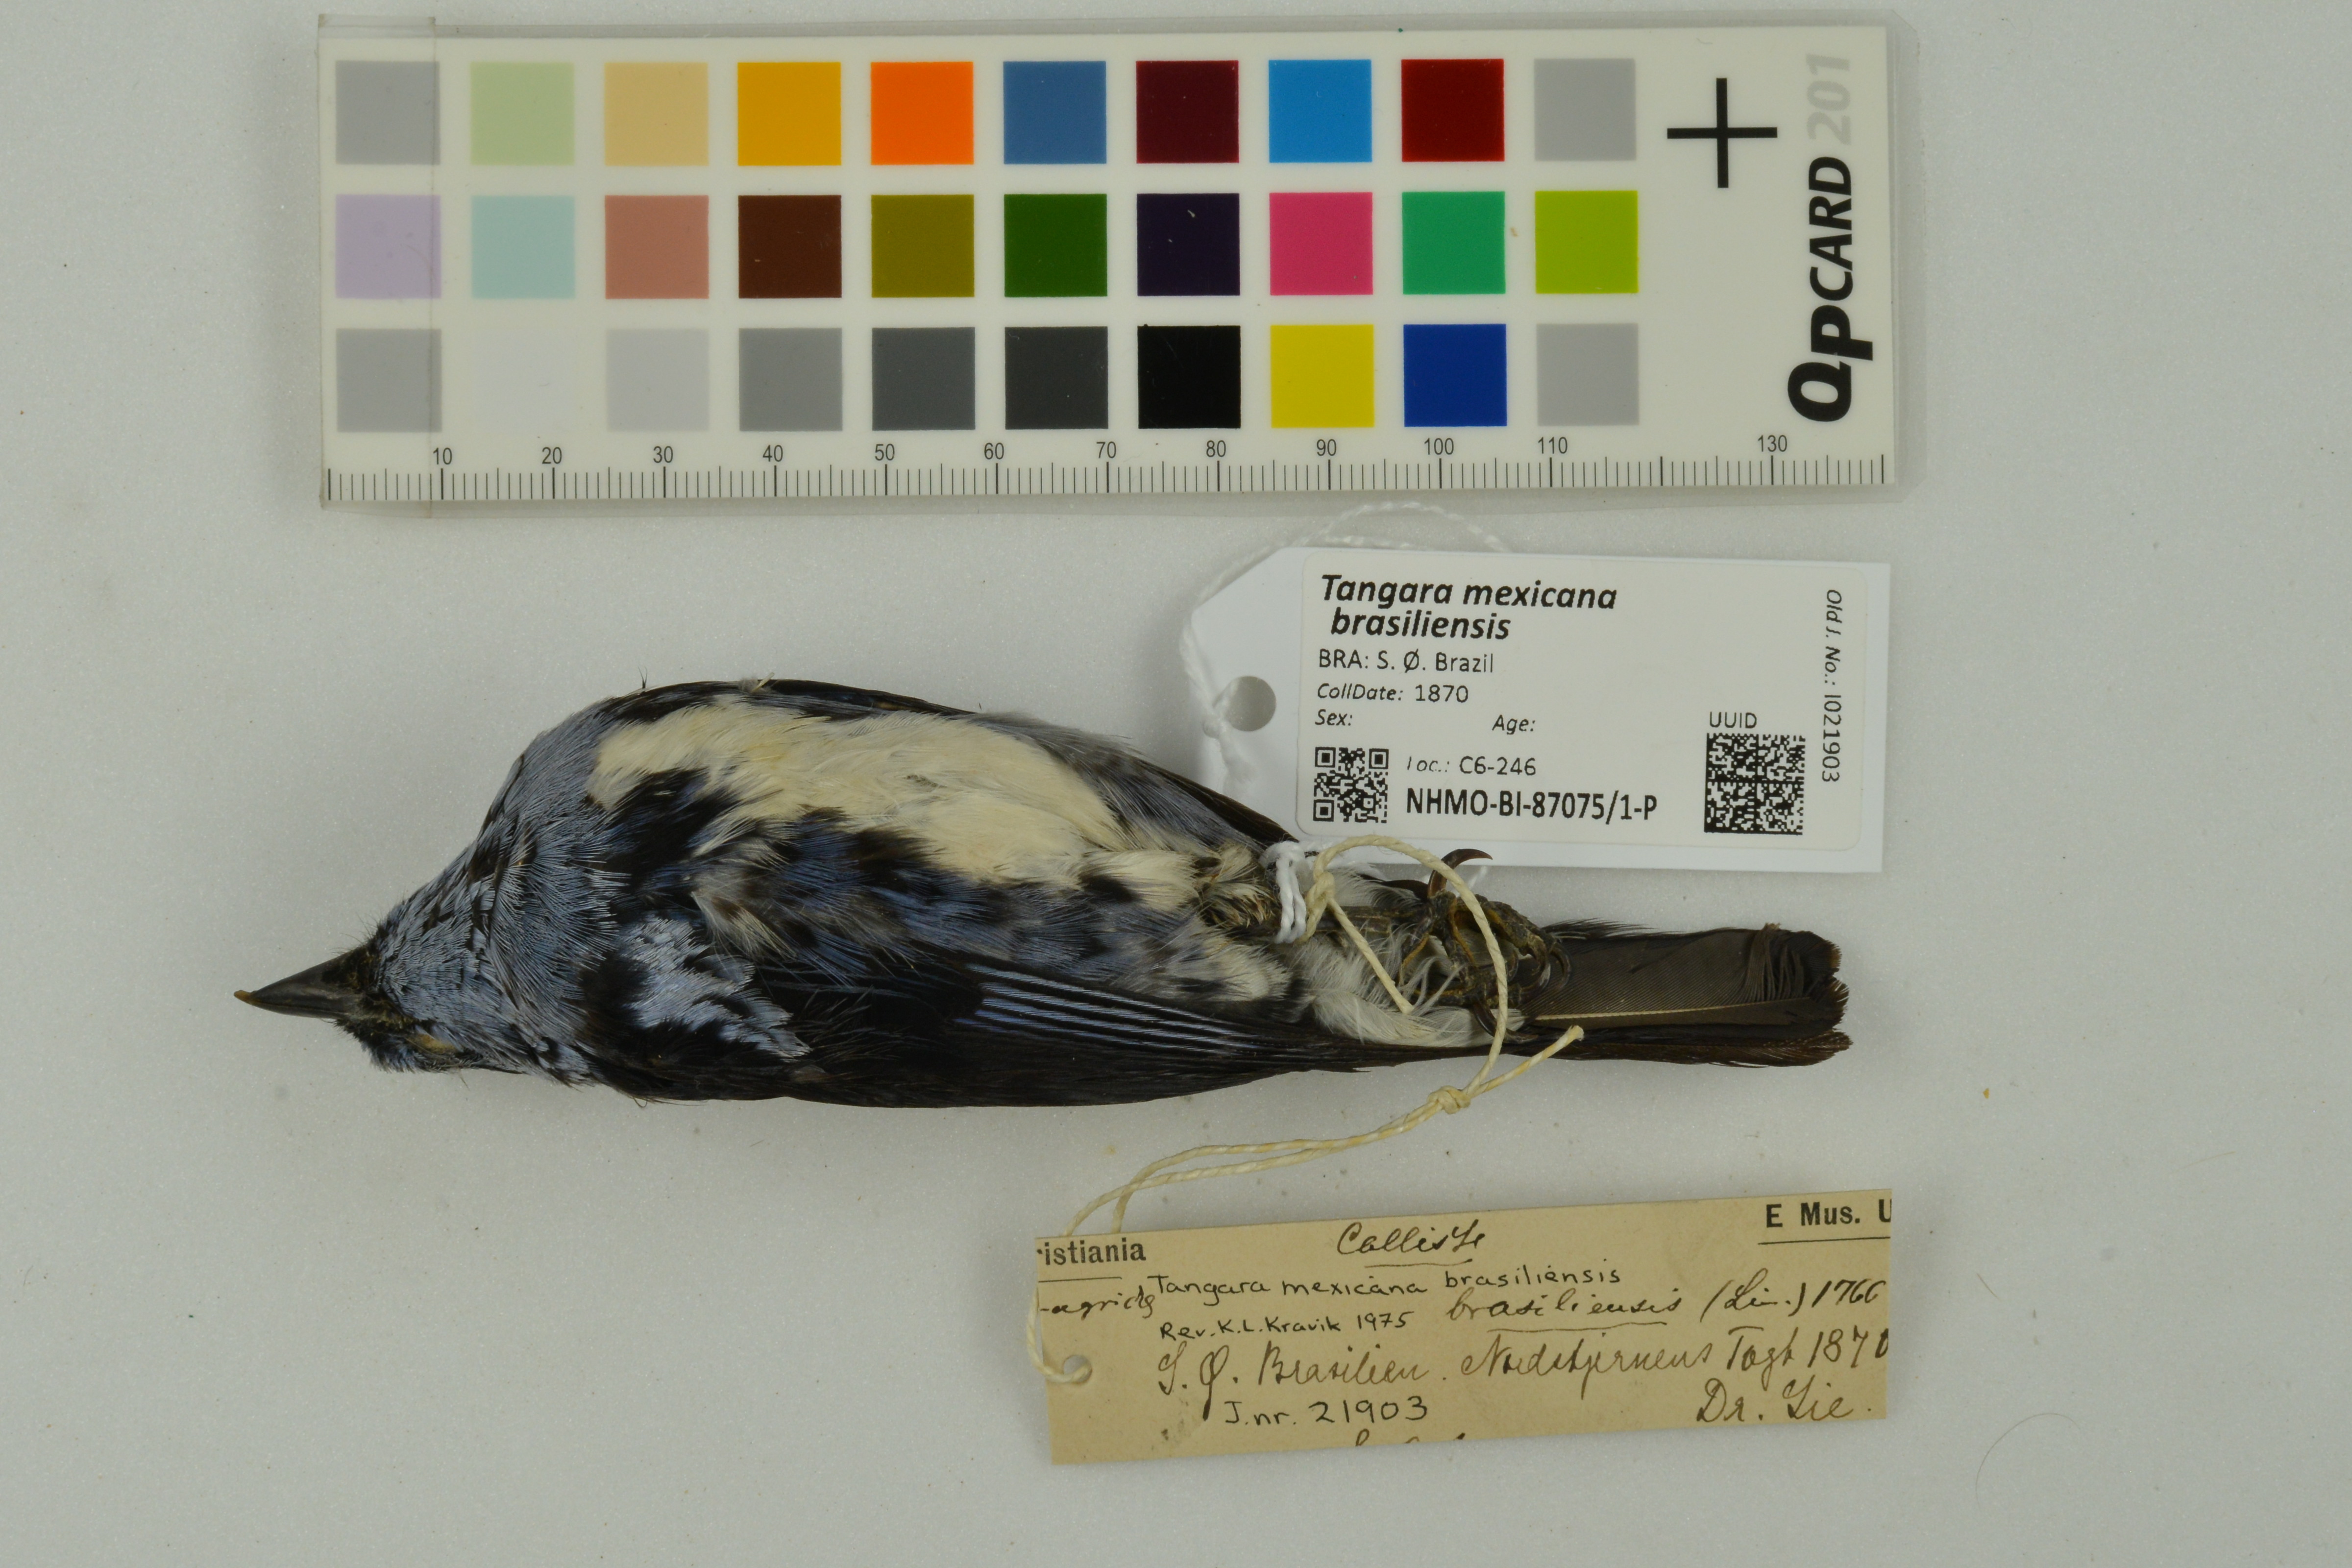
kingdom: Animalia
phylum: Chordata
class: Aves
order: Passeriformes
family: Thraupidae
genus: Tangara
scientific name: Tangara mexicana
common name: Turquoise tanager
